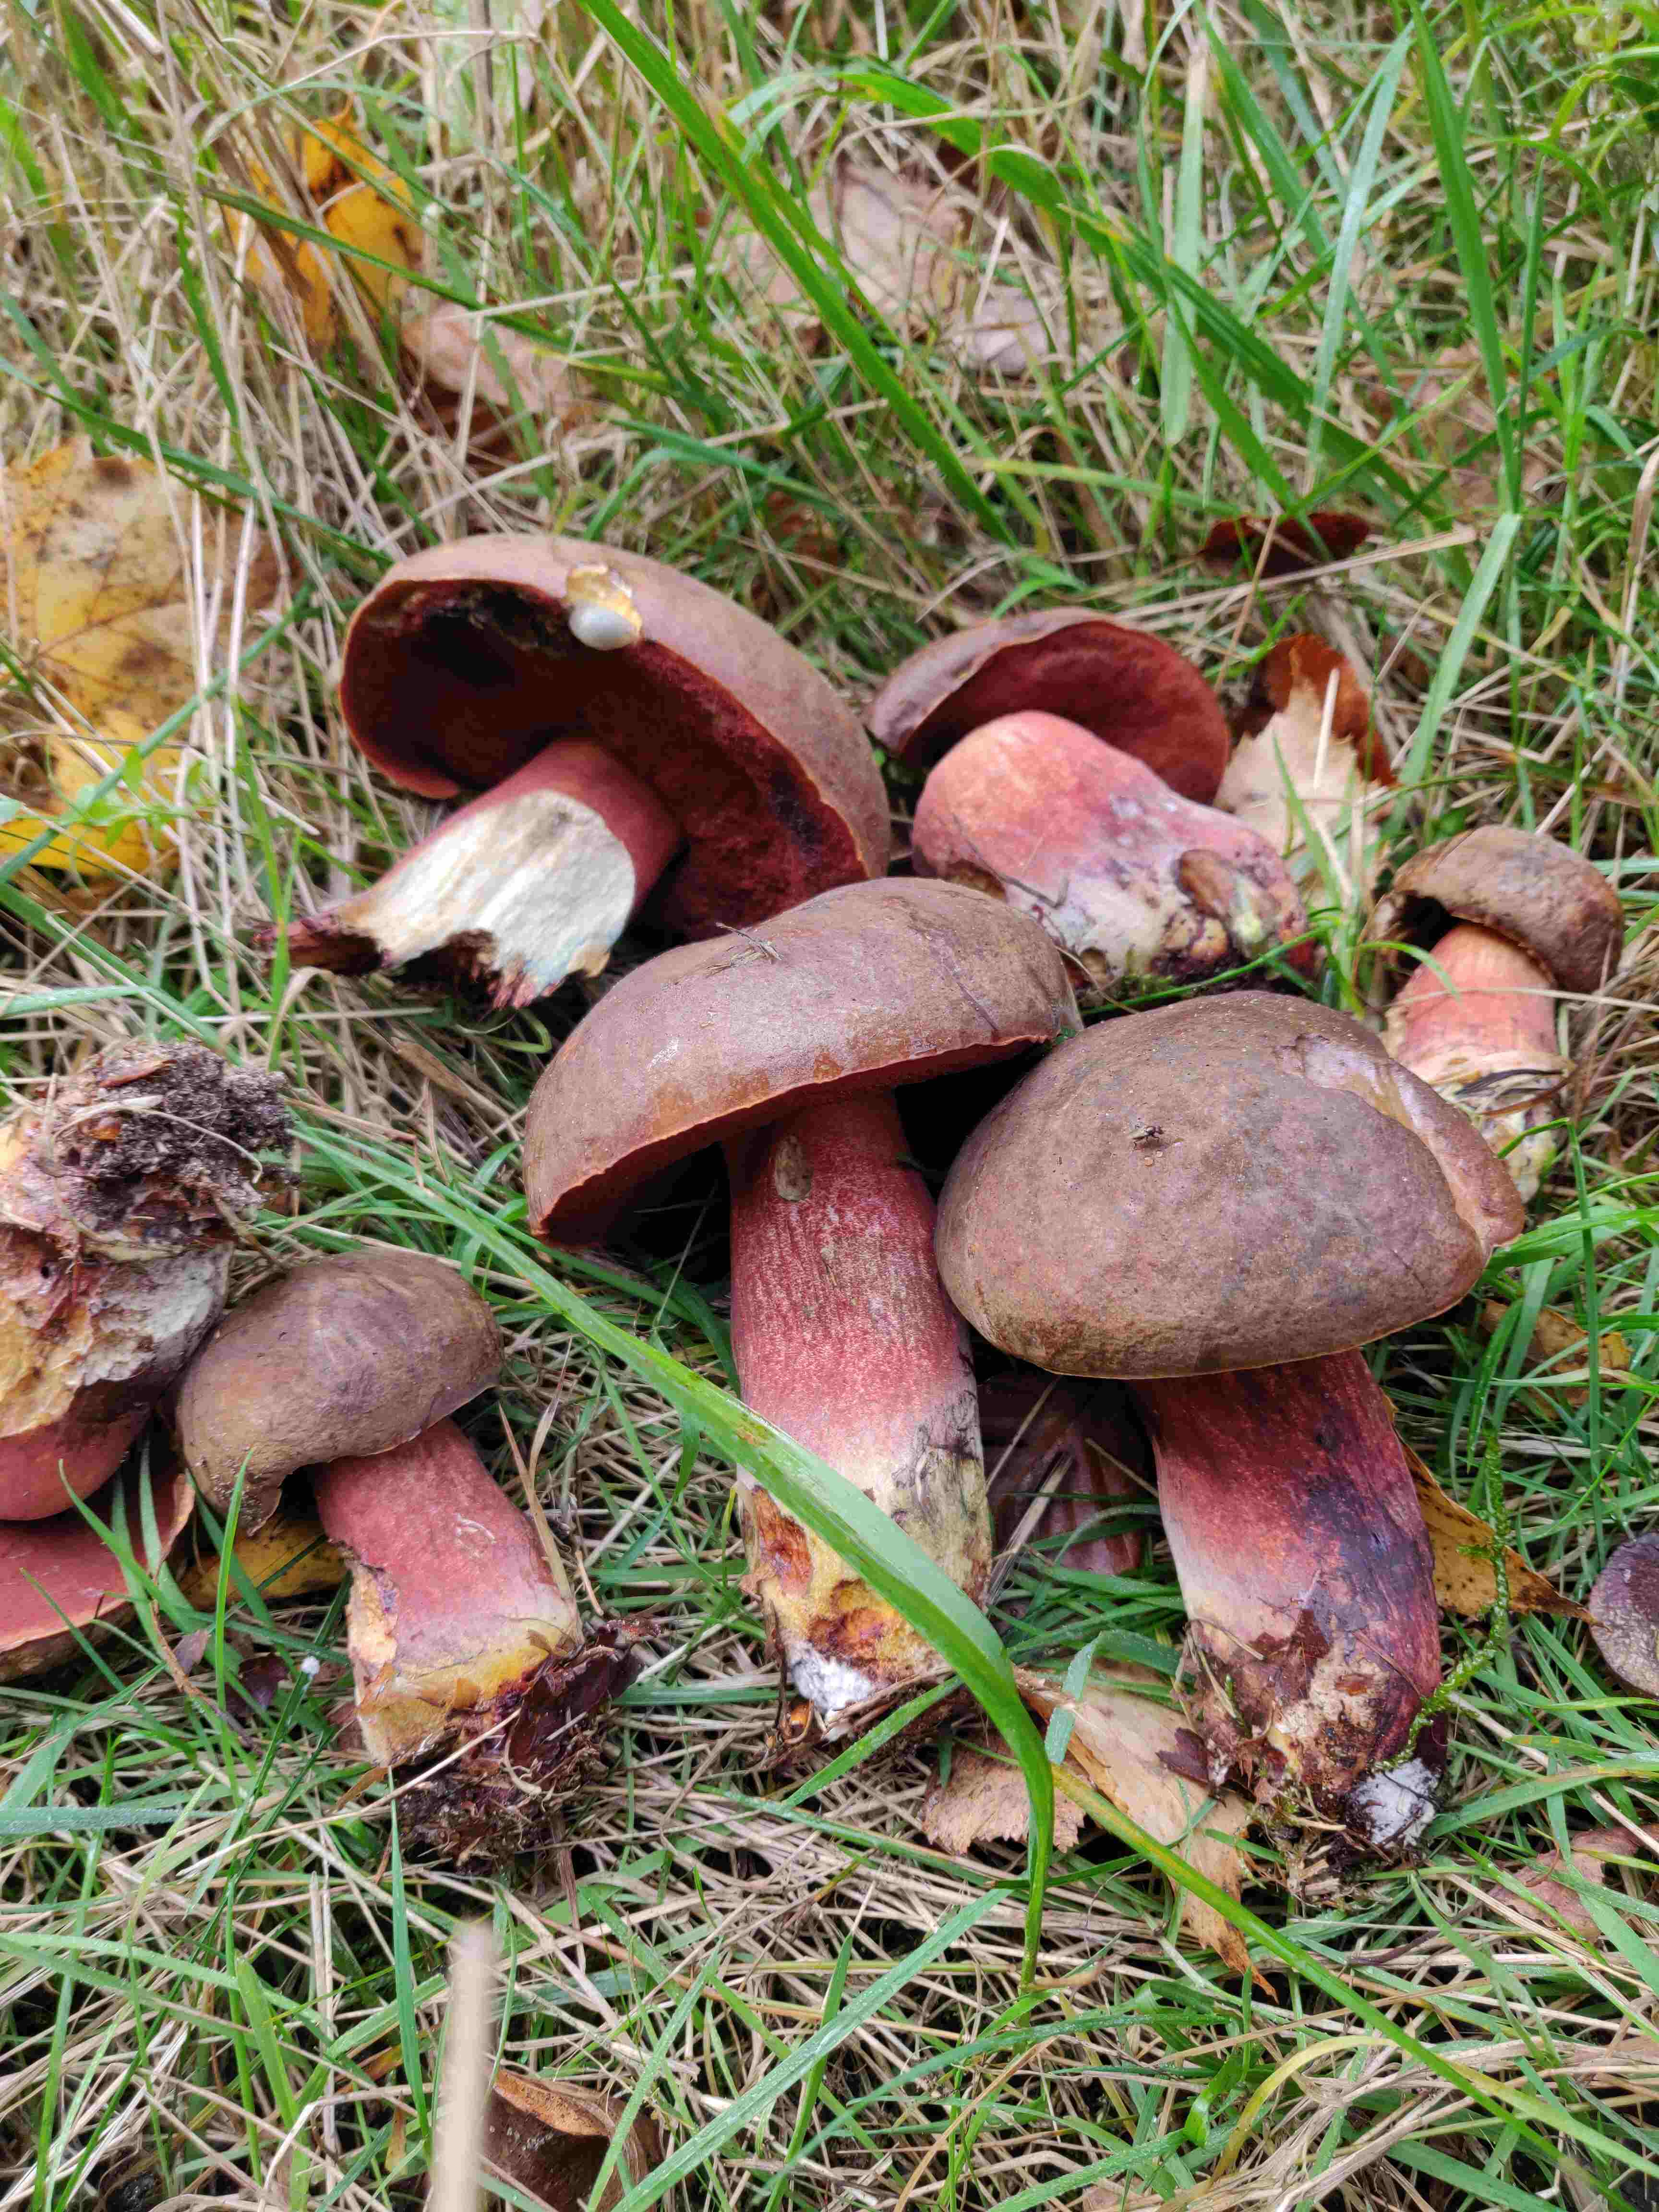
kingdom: Fungi
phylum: Basidiomycota
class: Agaricomycetes
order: Boletales
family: Boletaceae
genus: Neoboletus
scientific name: Neoboletus erythropus
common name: punktstokket indigorørhat
